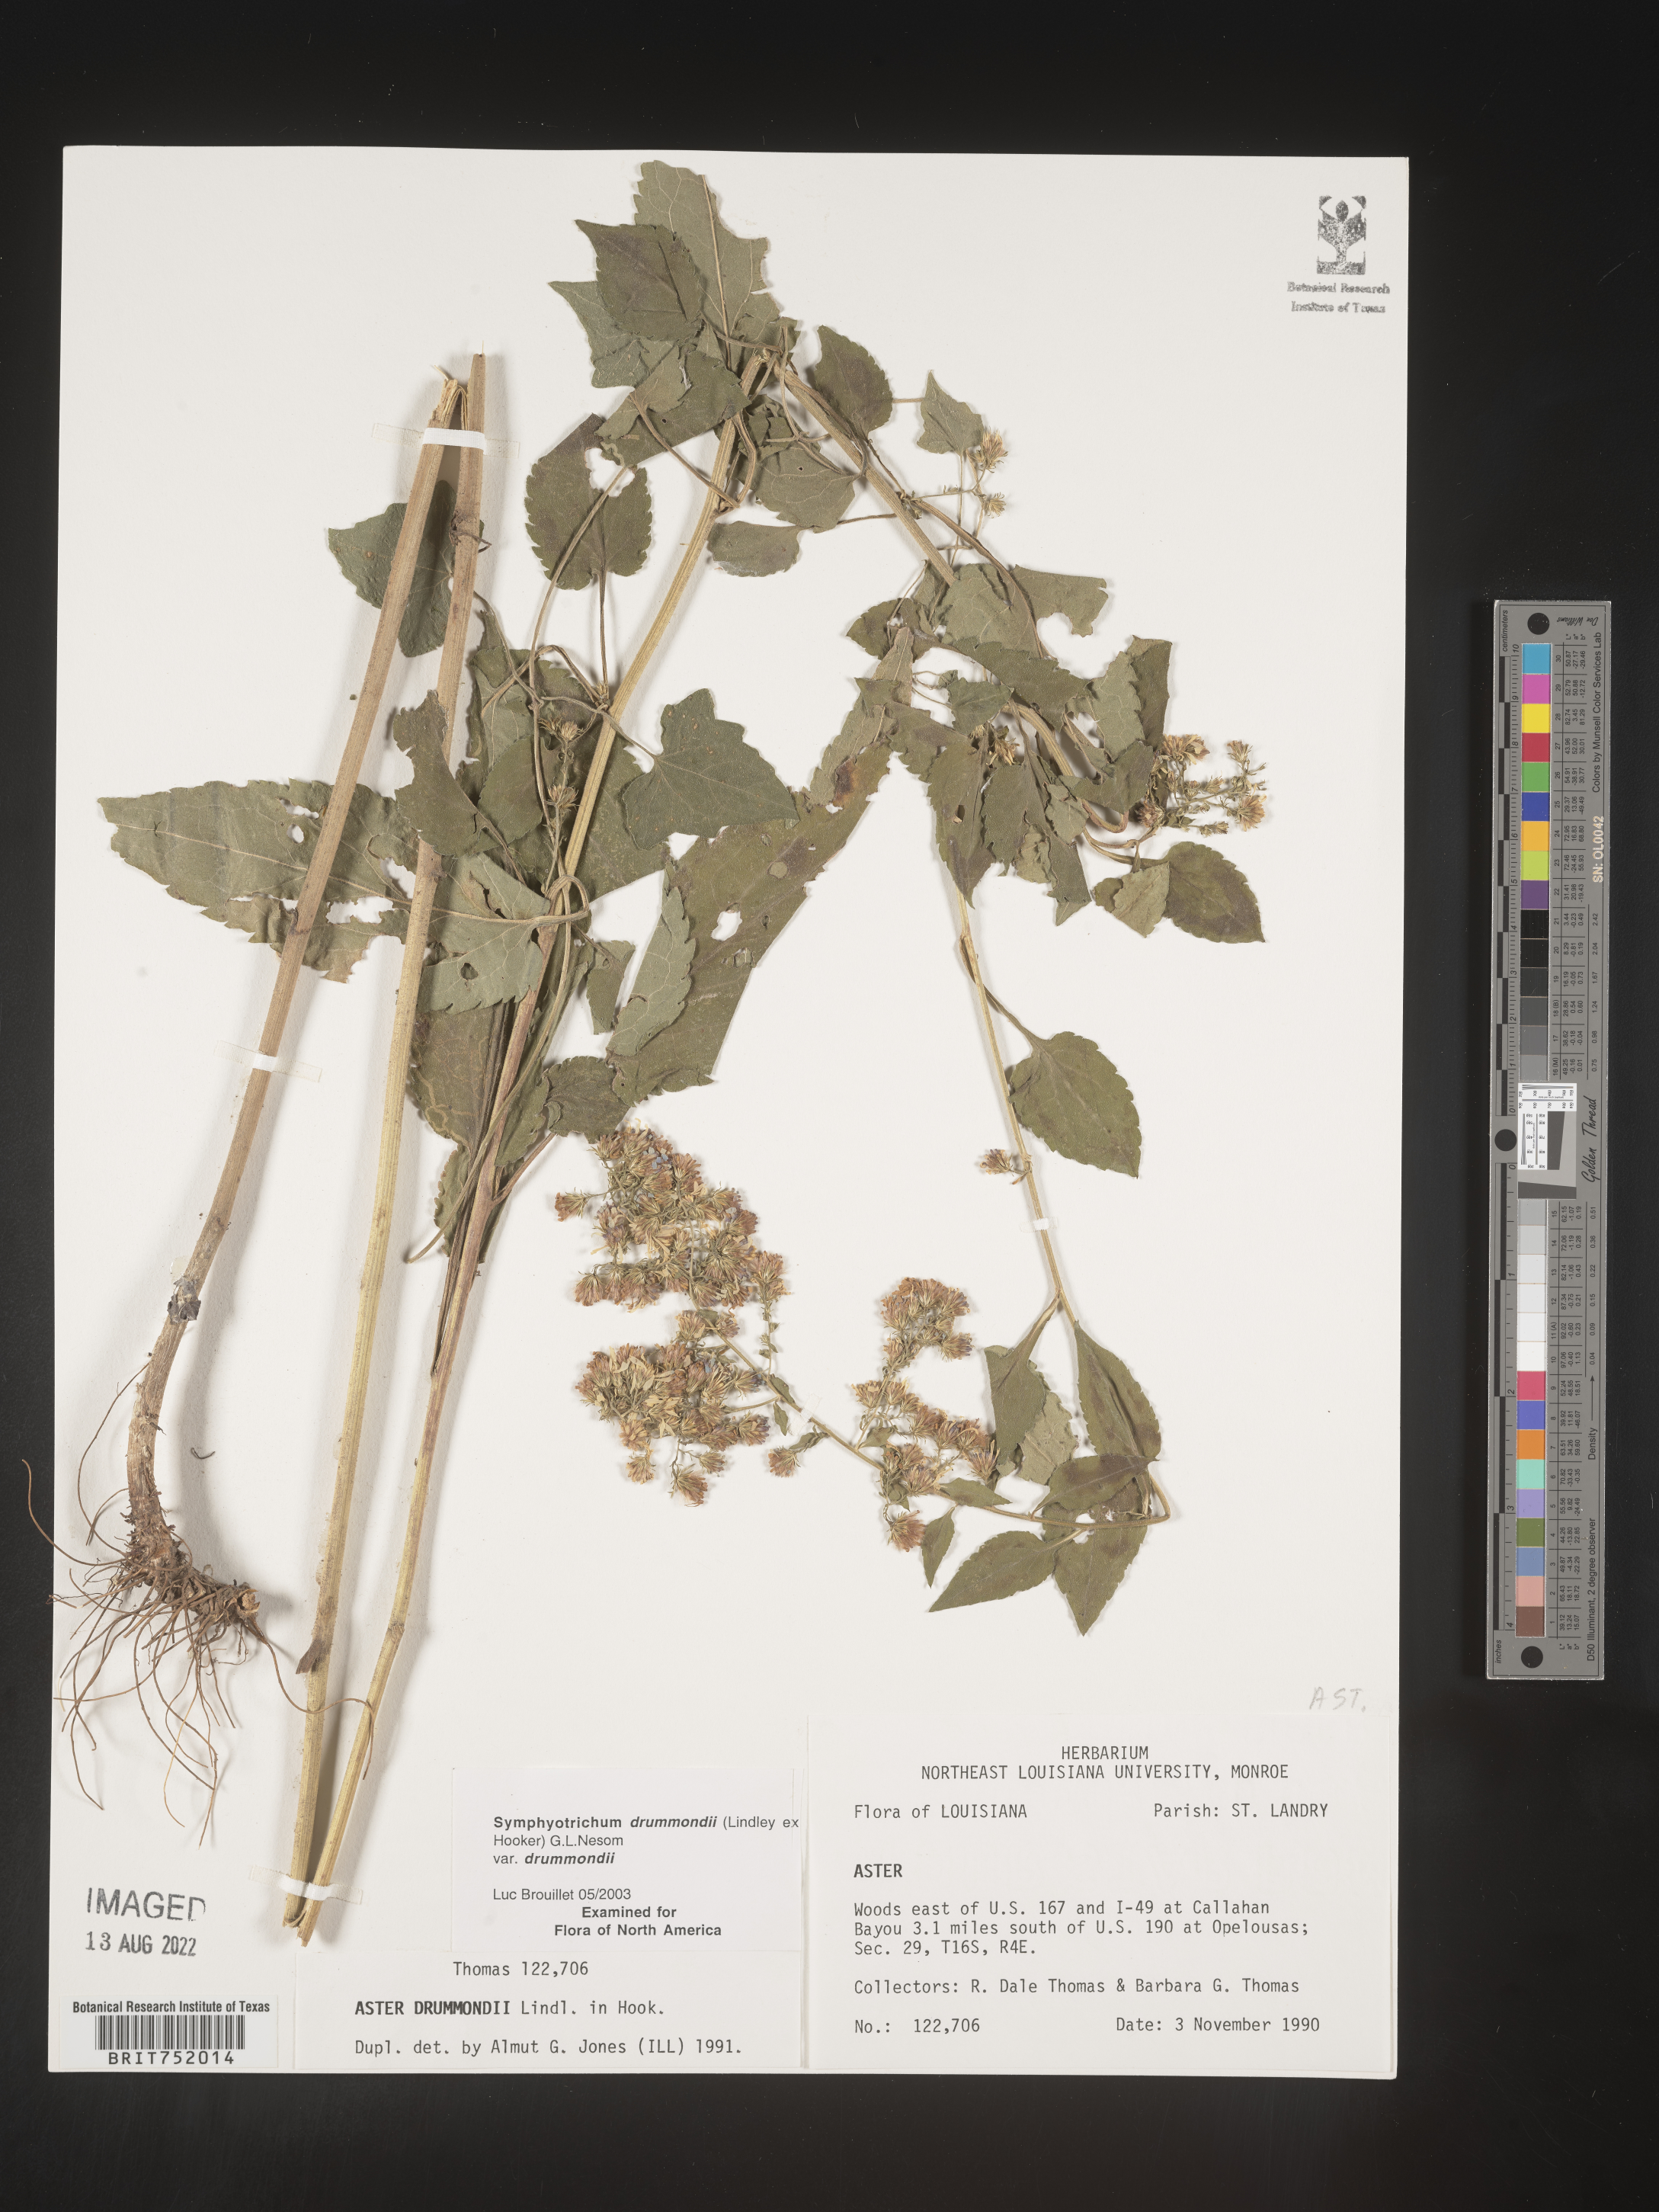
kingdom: Plantae
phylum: Tracheophyta
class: Magnoliopsida
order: Asterales
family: Asteraceae
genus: Symphyotrichum
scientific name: Symphyotrichum drummondii
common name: Drummond's aster
